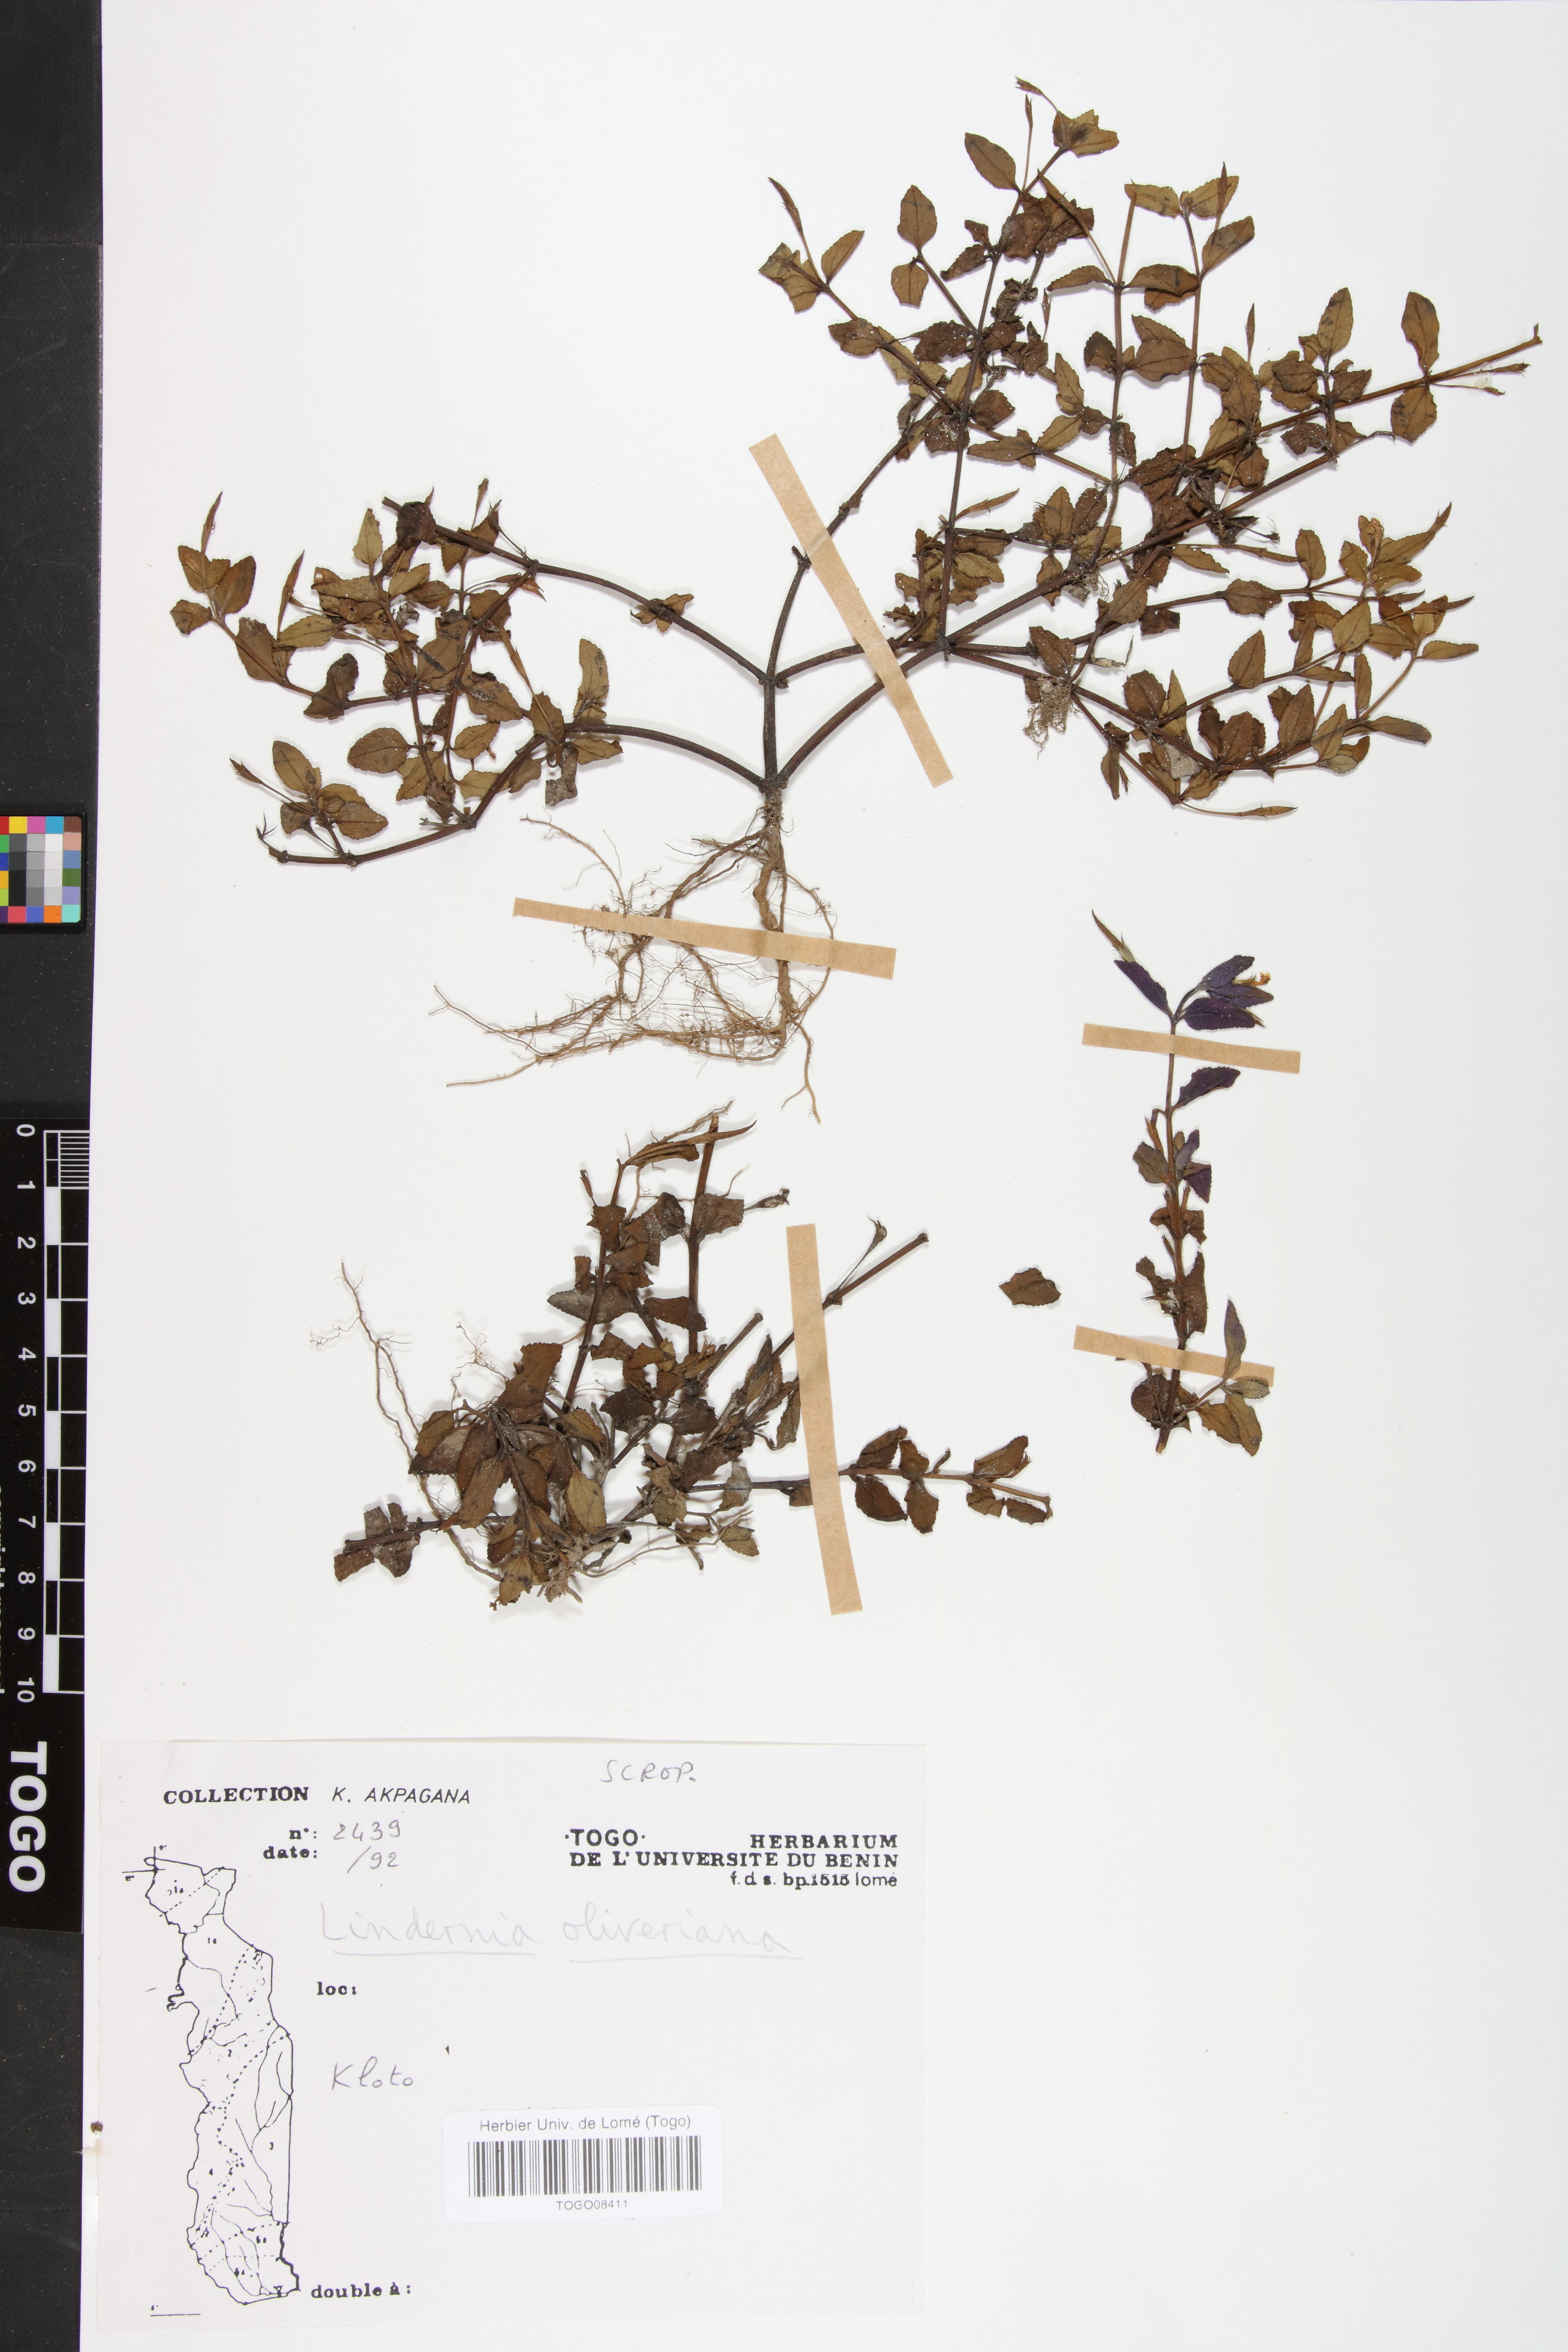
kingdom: Plantae
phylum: Tracheophyta
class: Magnoliopsida
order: Lamiales
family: Linderniaceae
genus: Craterostigma
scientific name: Craterostigma newtonii
